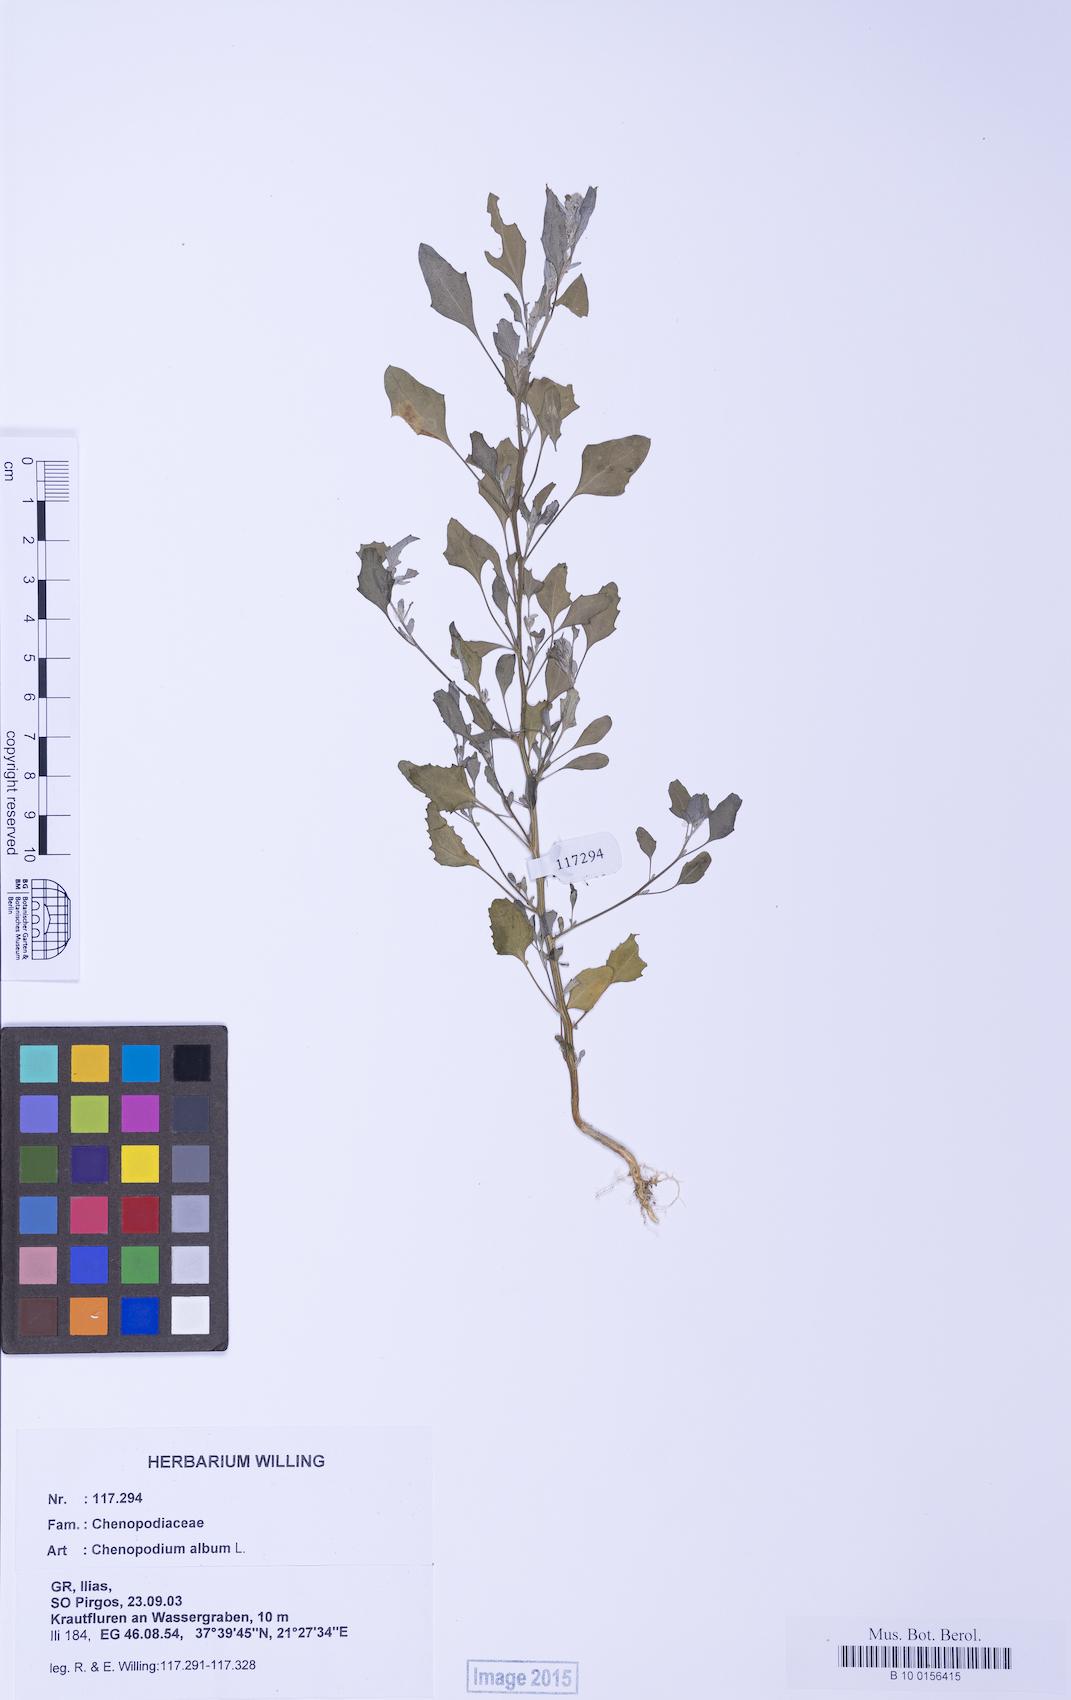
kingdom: Plantae
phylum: Tracheophyta
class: Magnoliopsida
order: Caryophyllales
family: Amaranthaceae
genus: Chenopodium
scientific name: Chenopodium album
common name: Fat-hen
